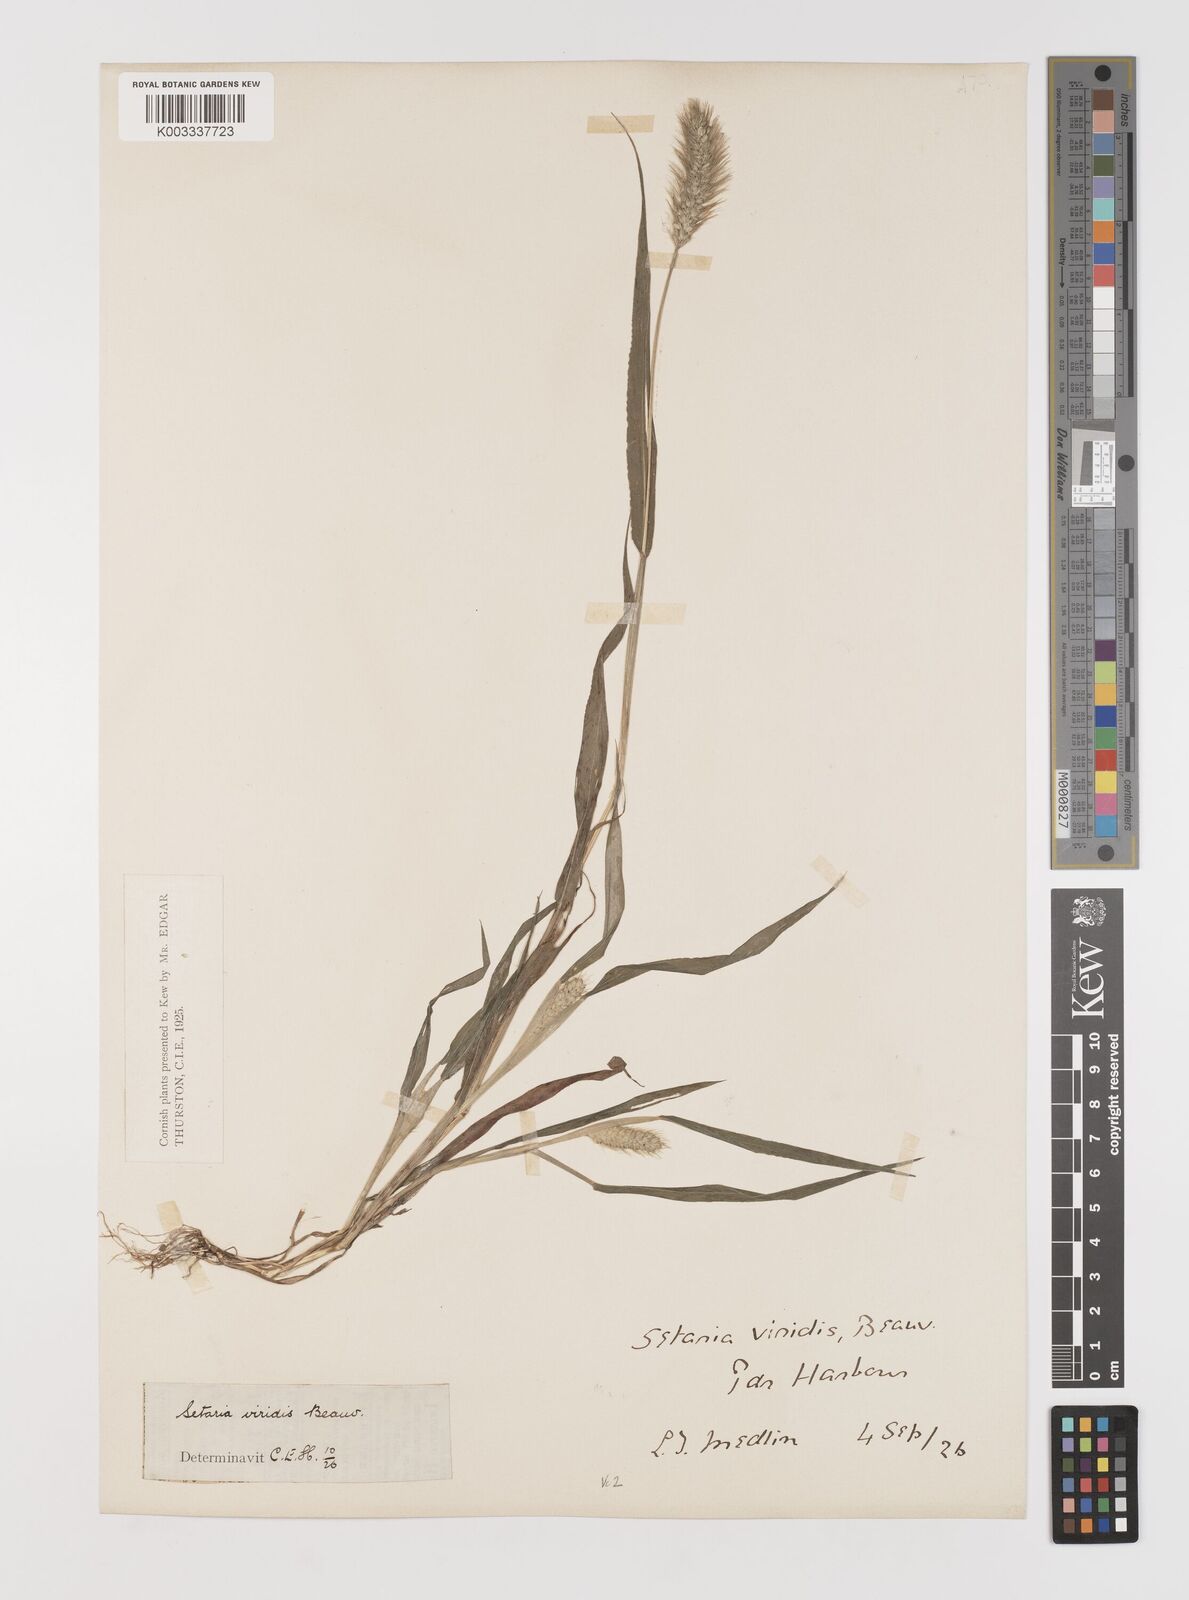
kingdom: Plantae
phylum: Tracheophyta
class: Liliopsida
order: Poales
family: Poaceae
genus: Setaria
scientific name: Setaria viridis
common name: Green bristlegrass
